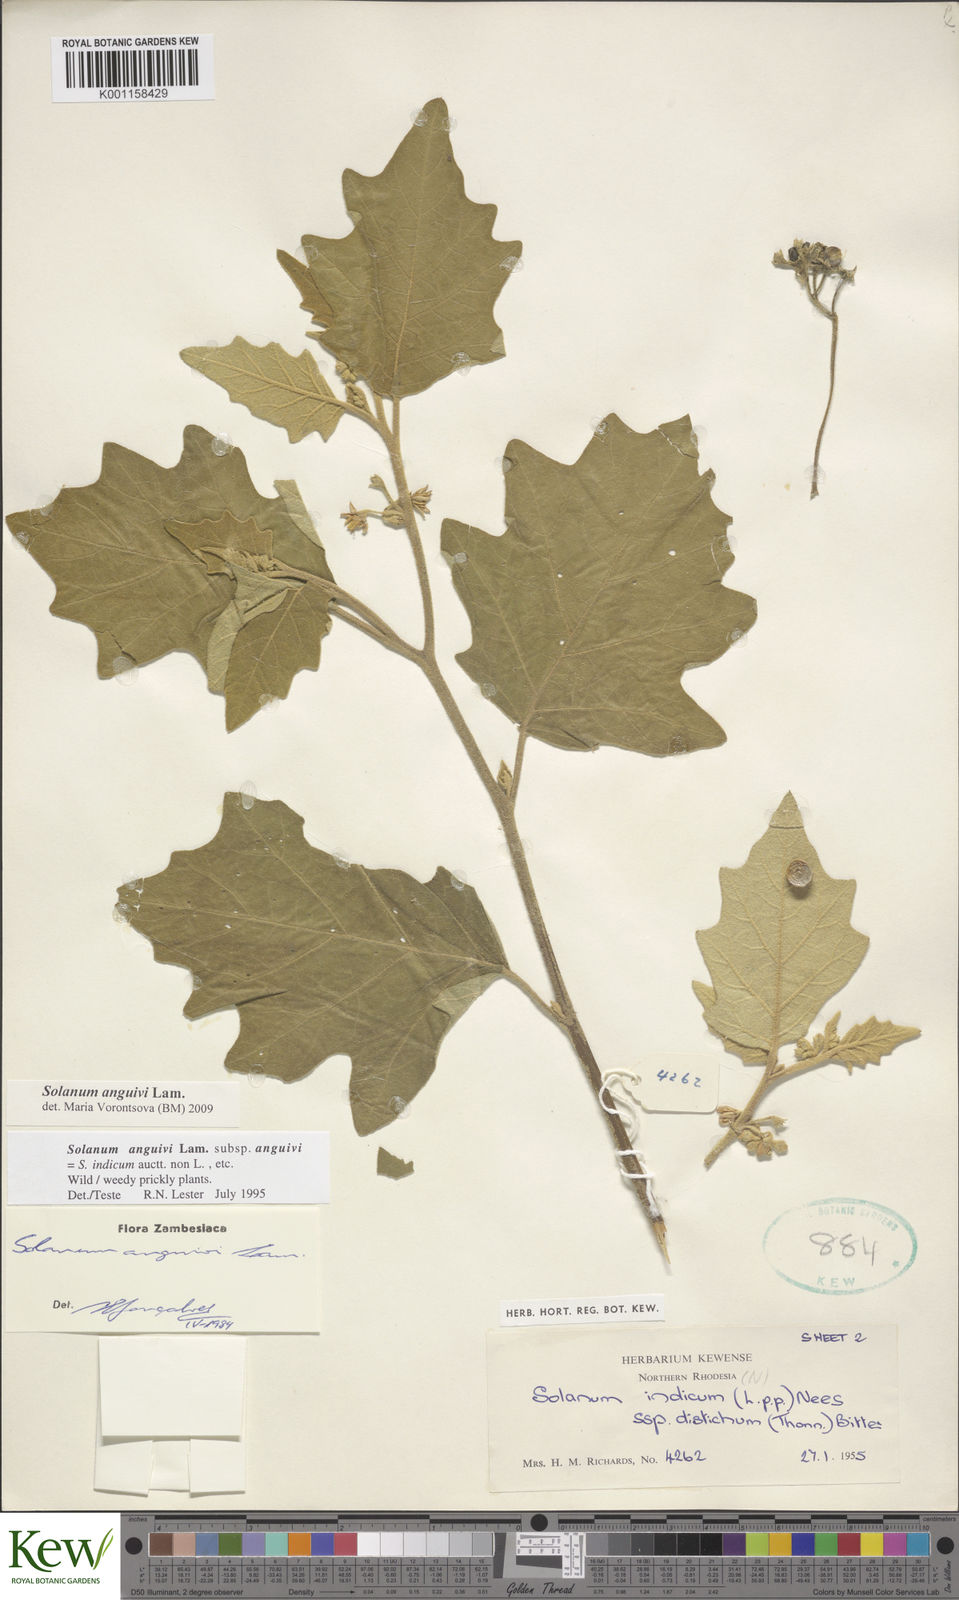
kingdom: Plantae
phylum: Tracheophyta
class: Magnoliopsida
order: Solanales
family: Solanaceae
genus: Solanum
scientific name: Solanum anguivi
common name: Forest bitterberry
